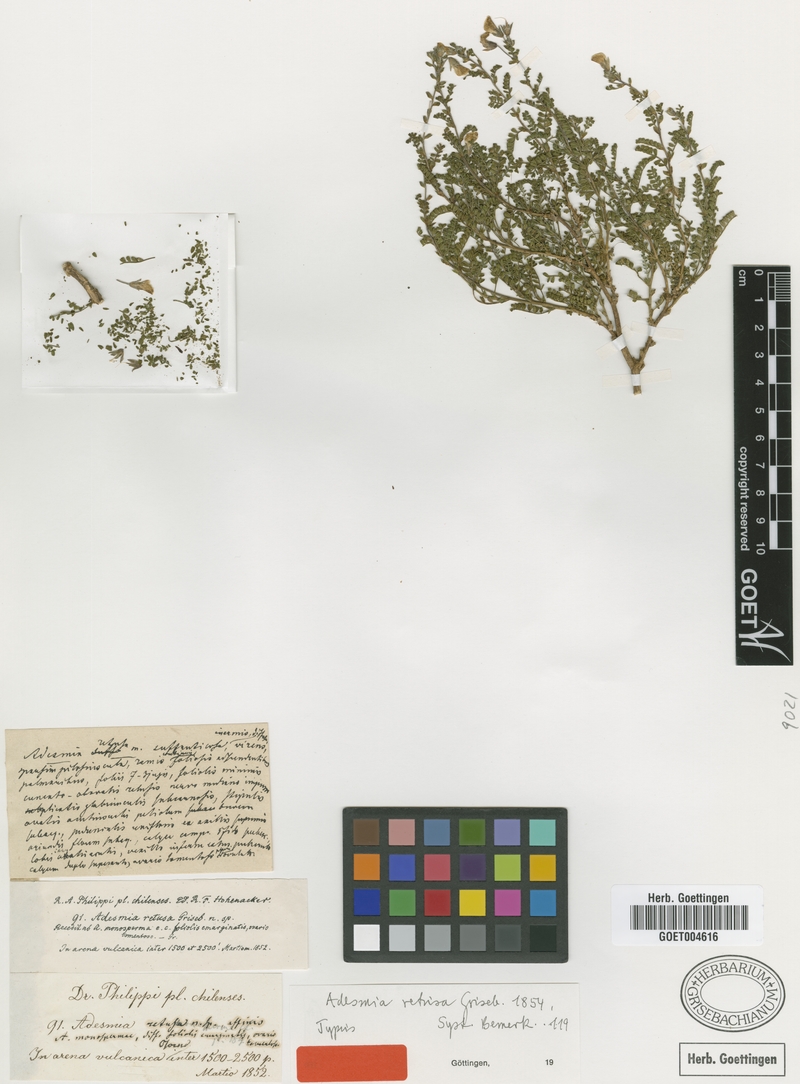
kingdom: Plantae
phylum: Tracheophyta
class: Magnoliopsida
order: Fabales
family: Fabaceae
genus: Adesmia
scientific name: Adesmia retusa
